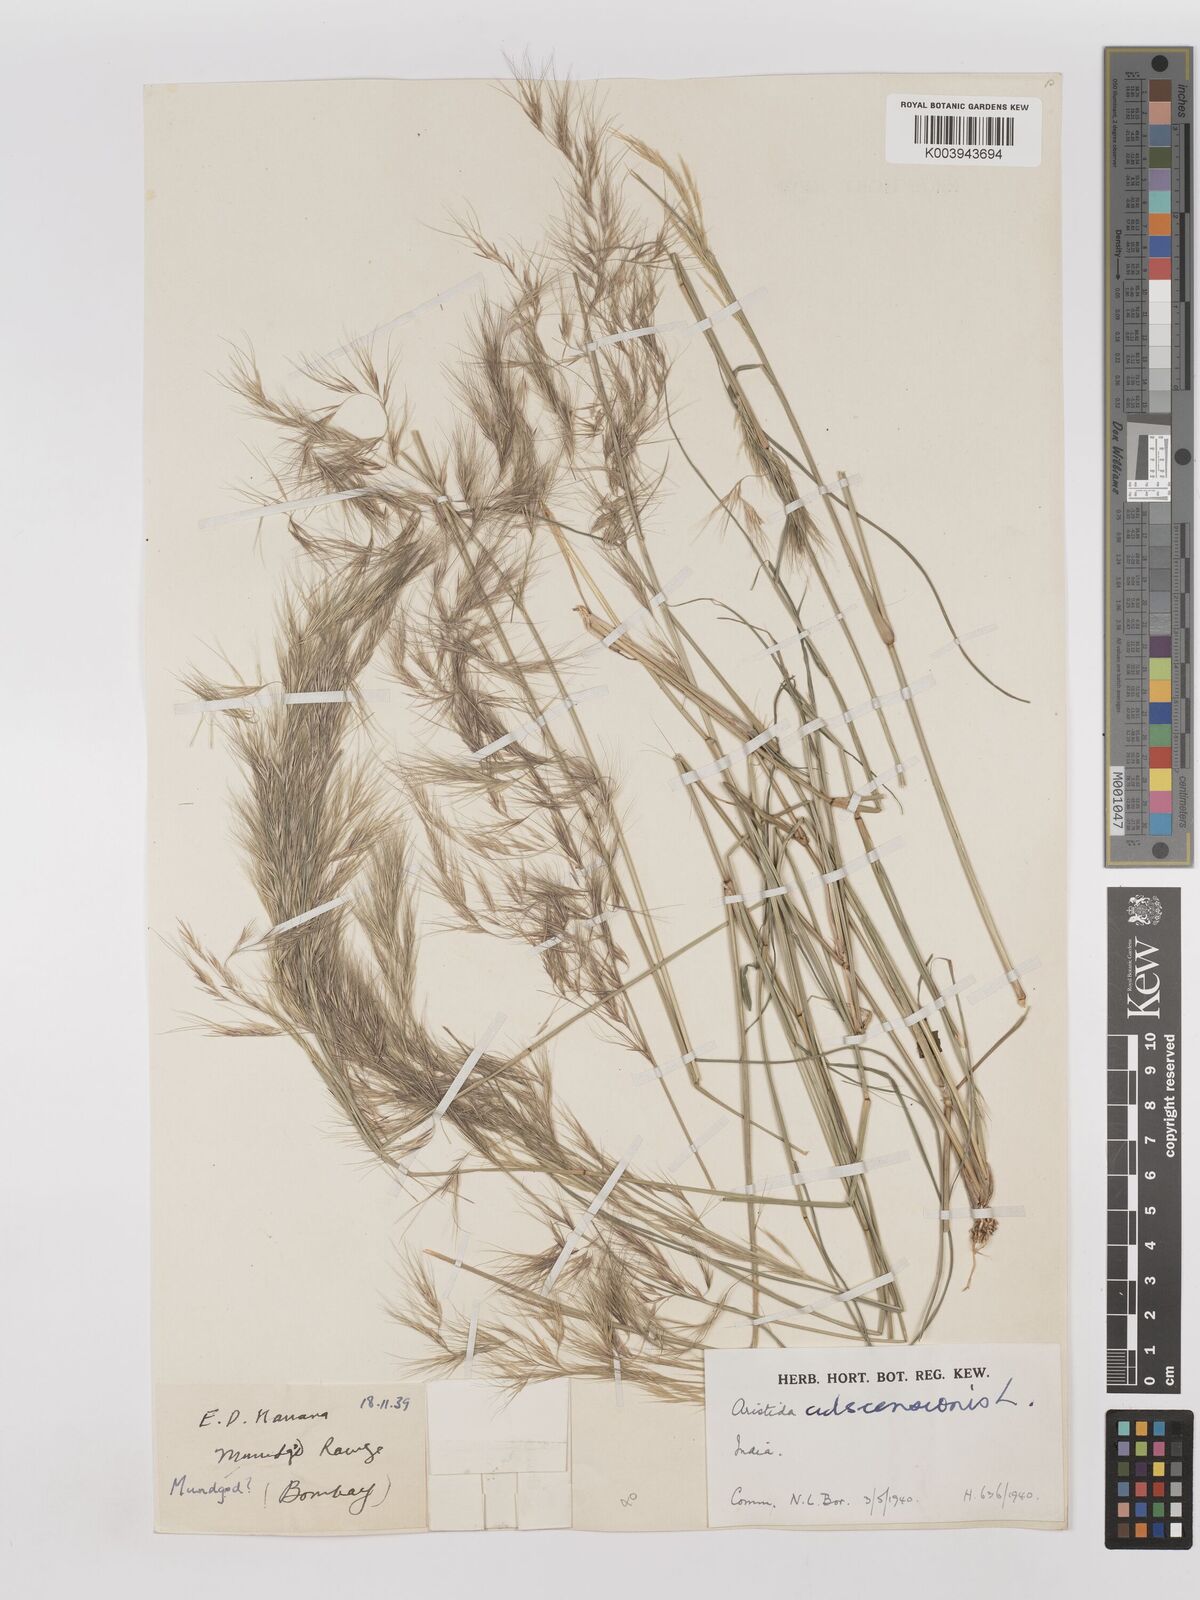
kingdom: Plantae
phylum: Tracheophyta
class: Liliopsida
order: Poales
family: Poaceae
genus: Aristida
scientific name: Aristida adscensionis
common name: Sixweeks threeawn
